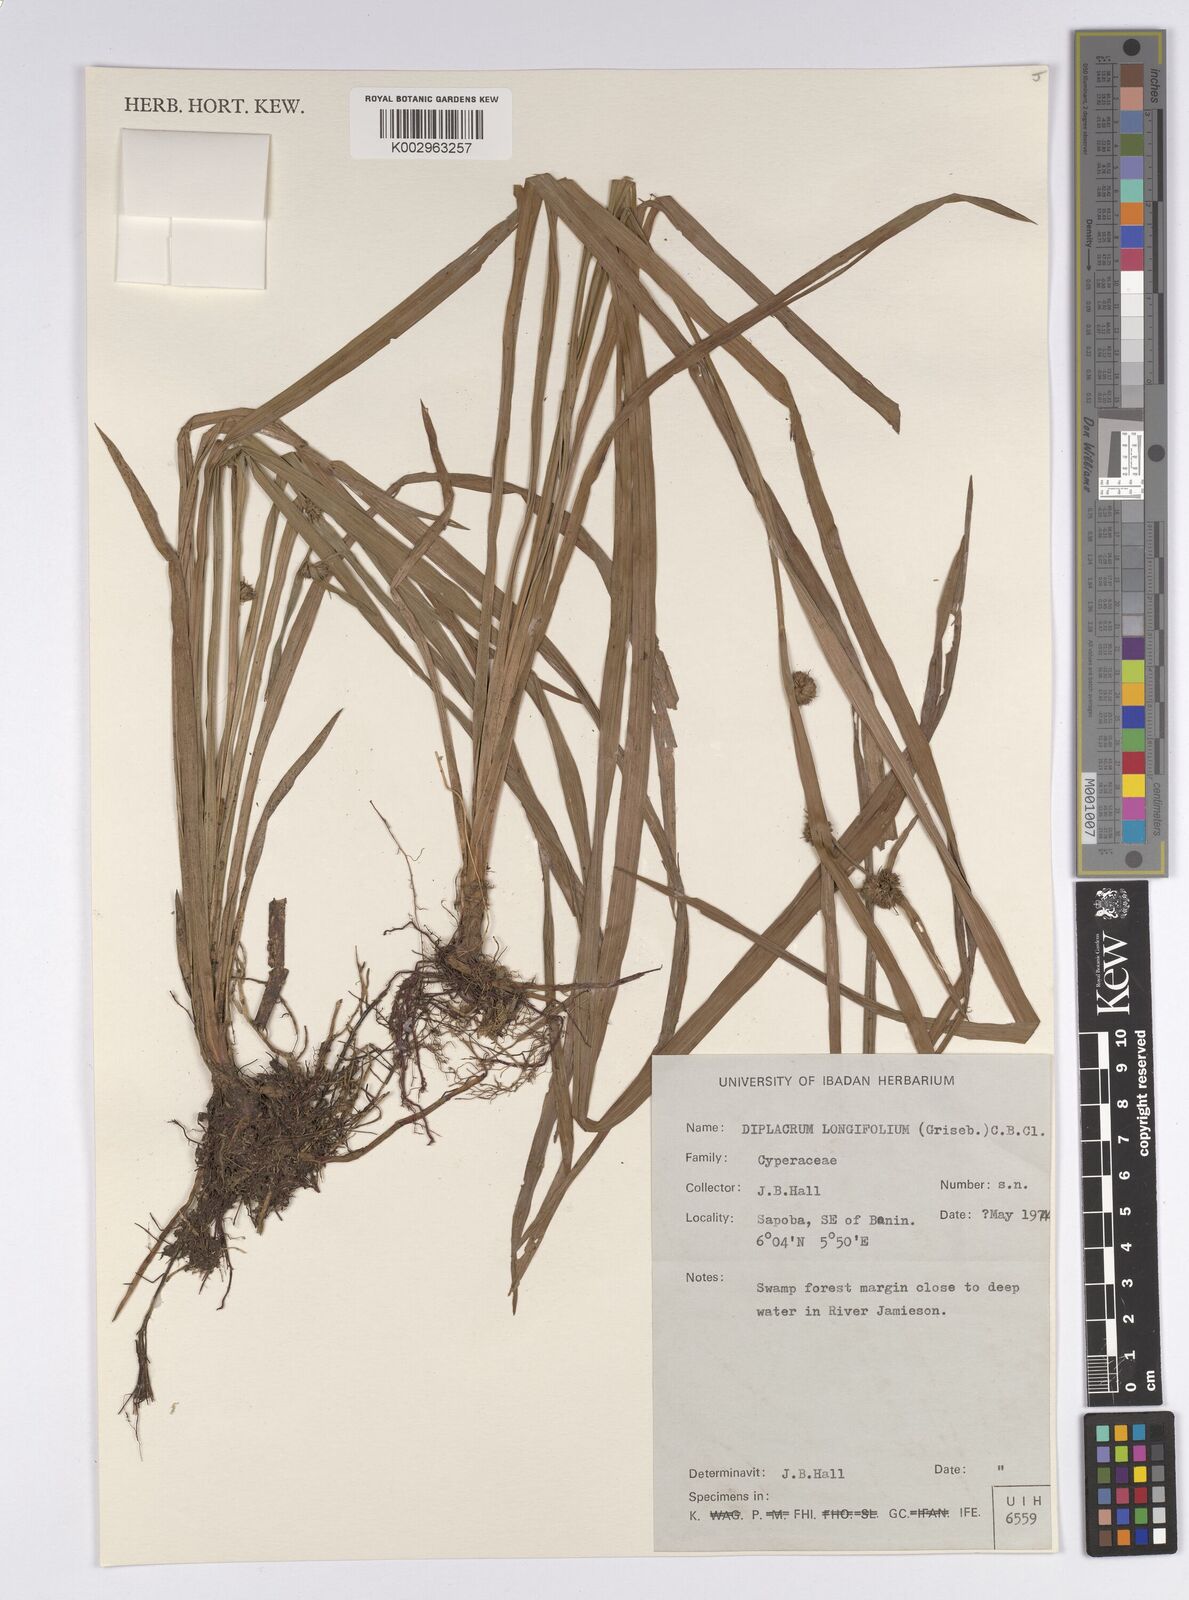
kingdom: Plantae
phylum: Tracheophyta
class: Liliopsida
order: Poales
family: Cyperaceae
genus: Diplacrum
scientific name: Diplacrum capitatum
